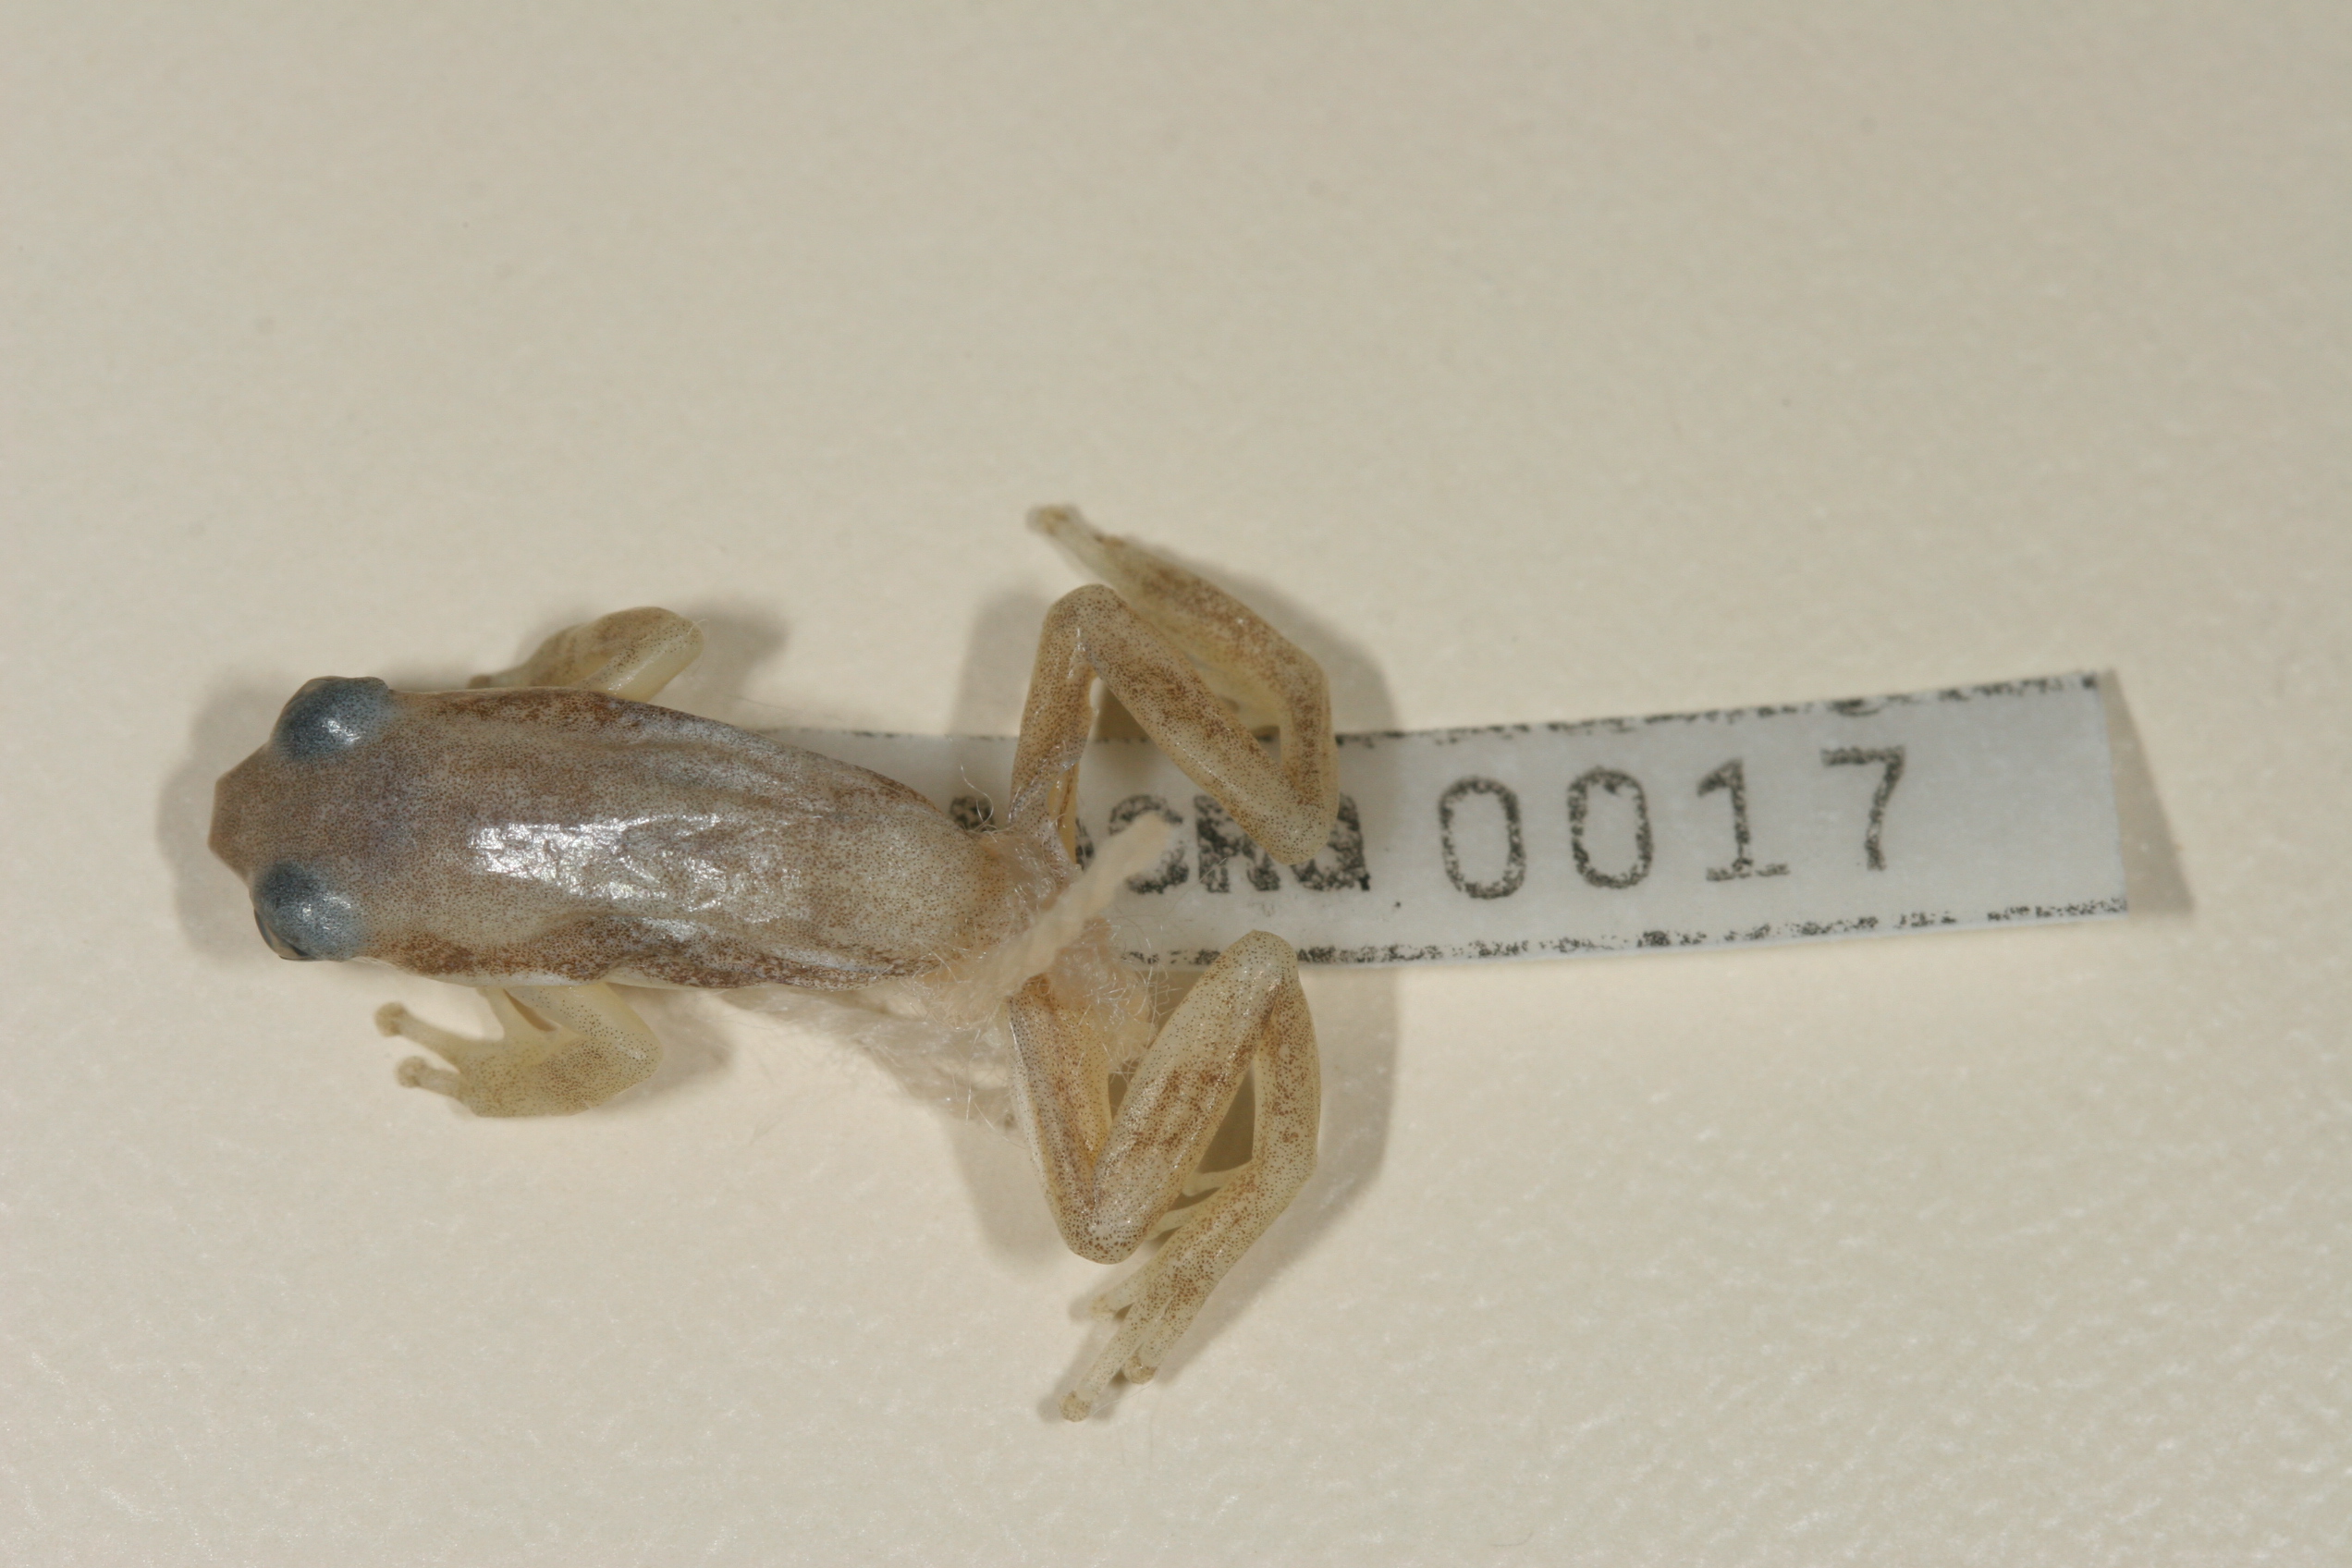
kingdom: Animalia
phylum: Chordata
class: Amphibia
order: Anura
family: Hyperoliidae
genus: Afrixalus
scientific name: Afrixalus aureus
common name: Golden banana frog
